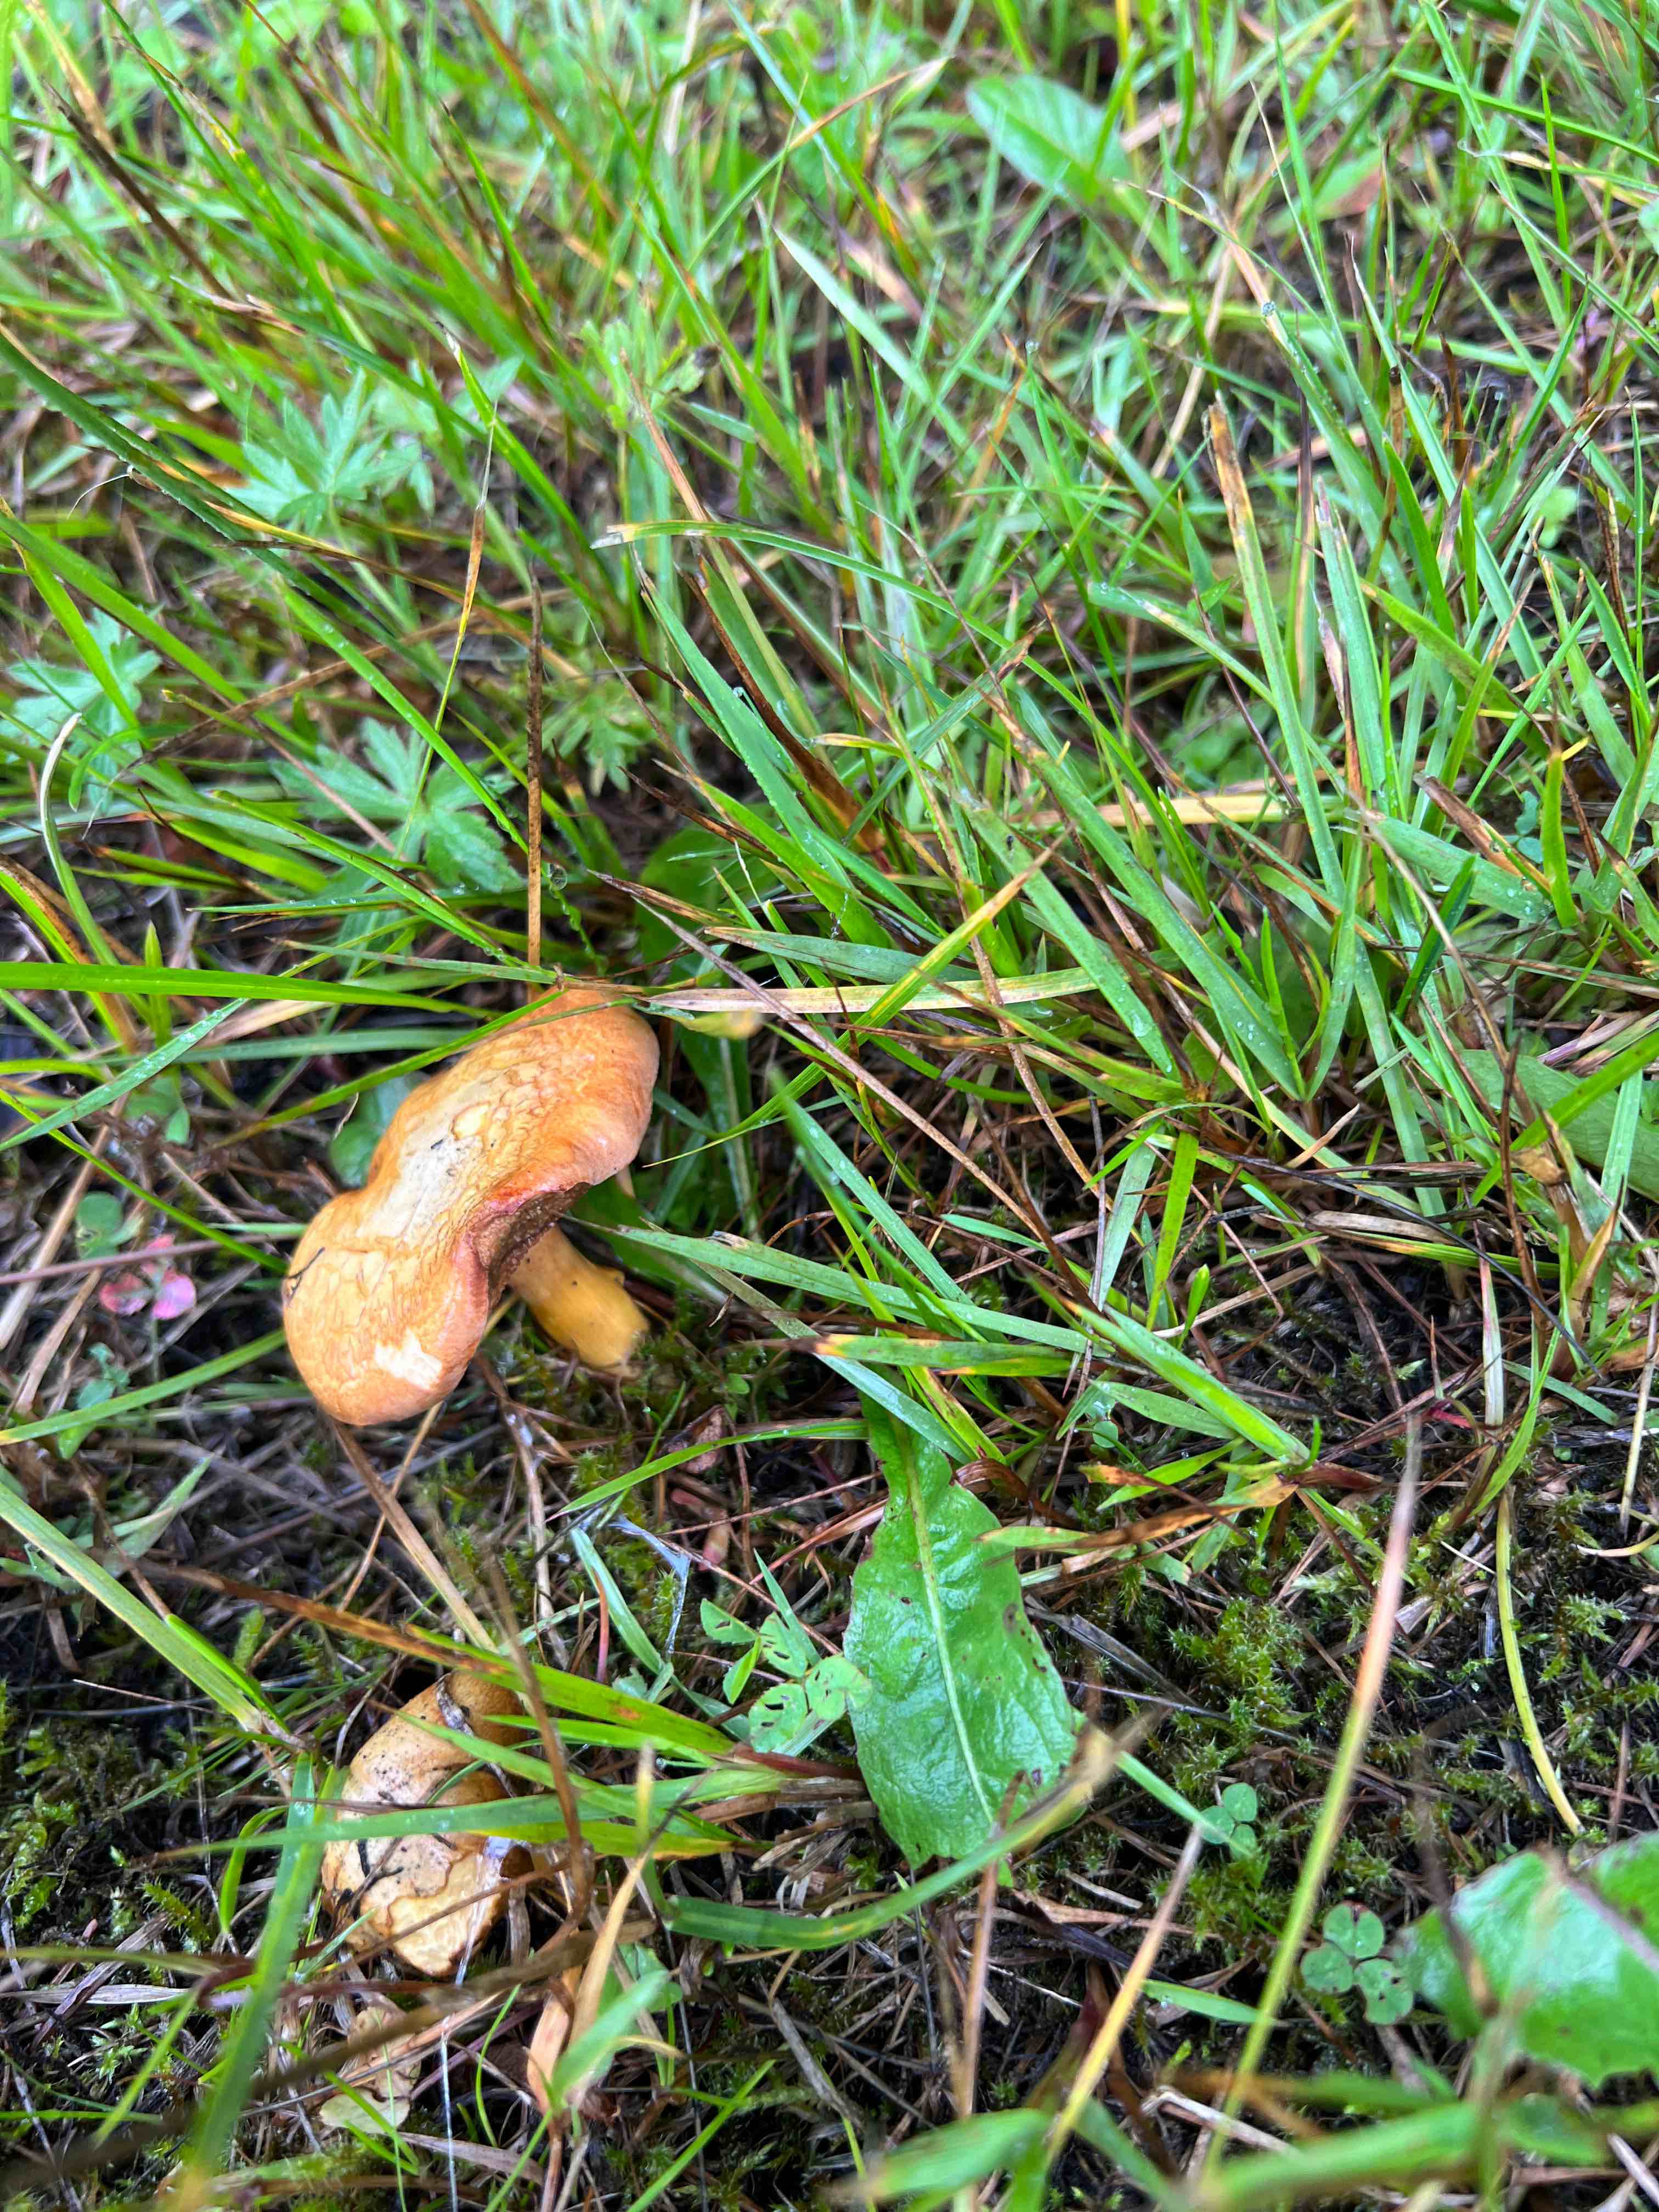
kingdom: Fungi
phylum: Basidiomycota
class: Agaricomycetes
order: Boletales
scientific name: Boletales
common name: rørhatordenen
